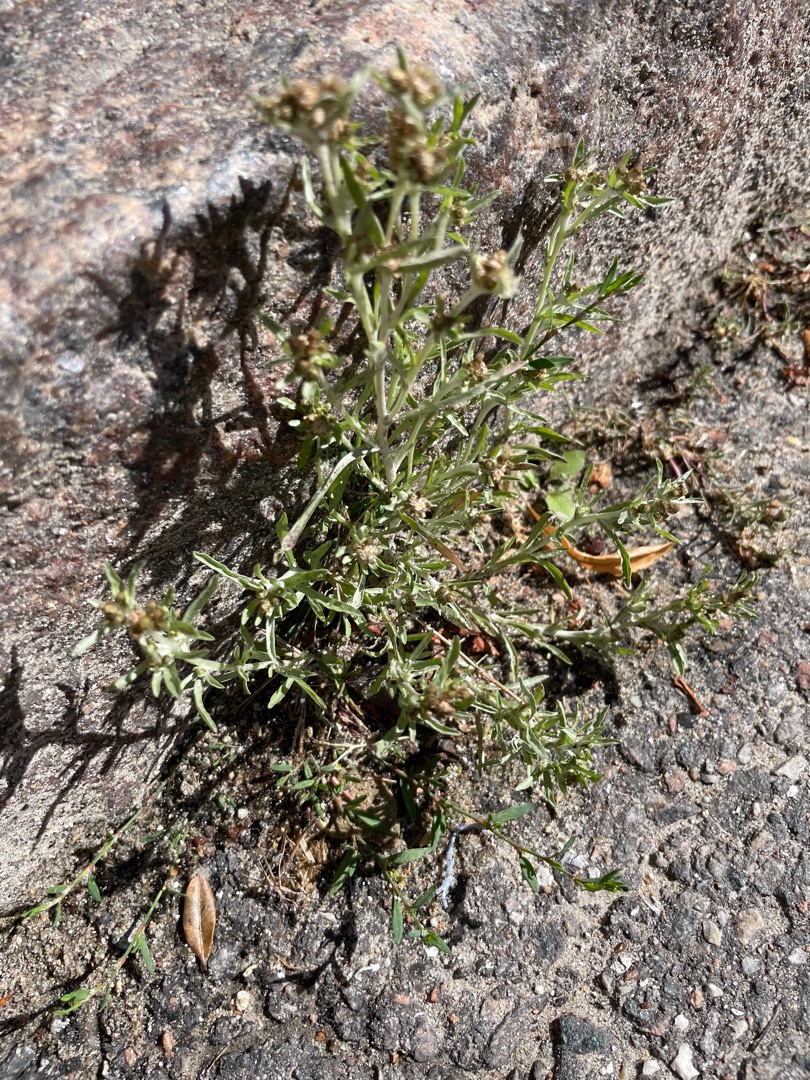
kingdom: Plantae
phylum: Tracheophyta
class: Magnoliopsida
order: Asterales
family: Asteraceae
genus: Gnaphalium
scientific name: Gnaphalium uliginosum
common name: Sump-evighedsblomst
